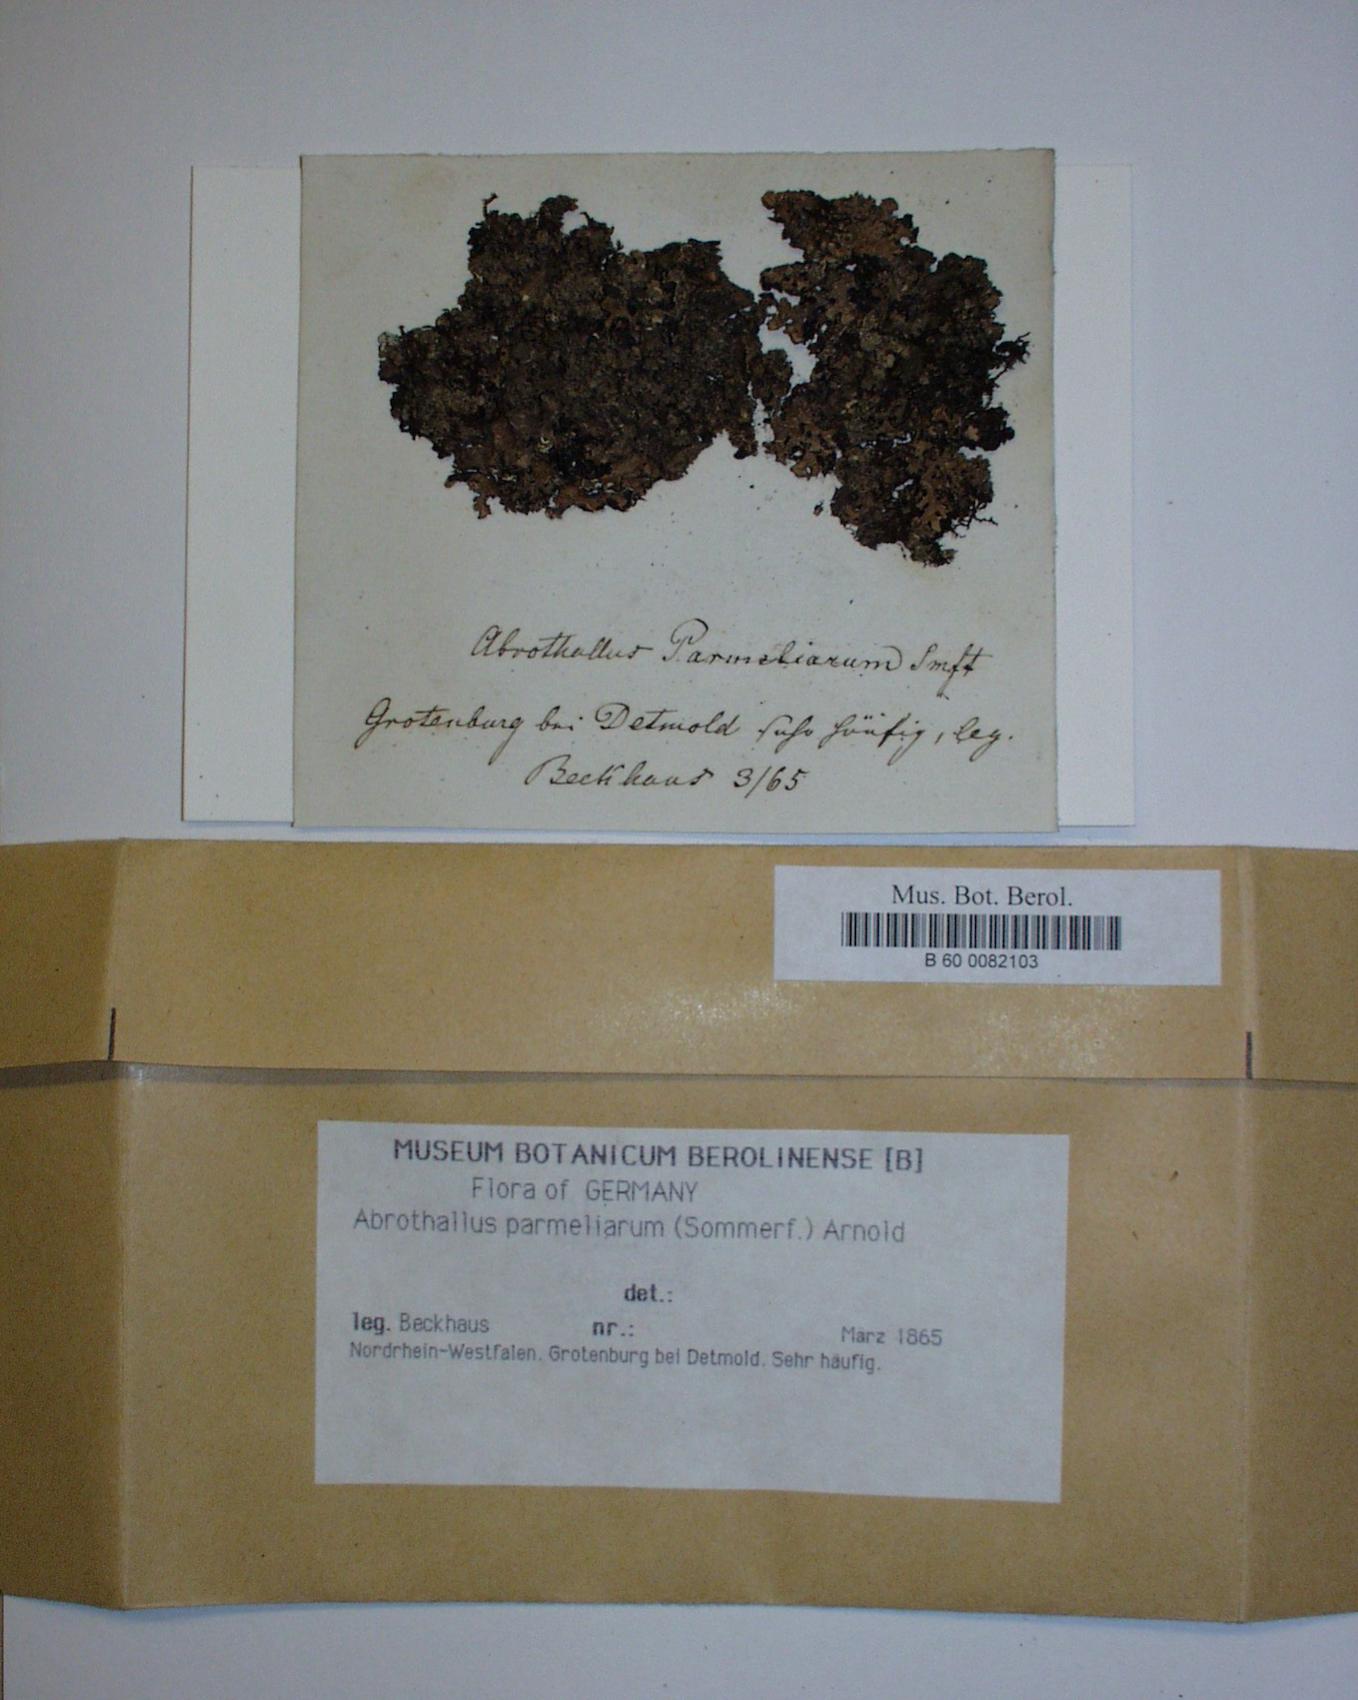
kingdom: Fungi
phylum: Ascomycota
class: Dothideomycetes
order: Abrothallales
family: Abrothallaceae
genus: Abrothallus
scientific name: Abrothallus parmeliarum
